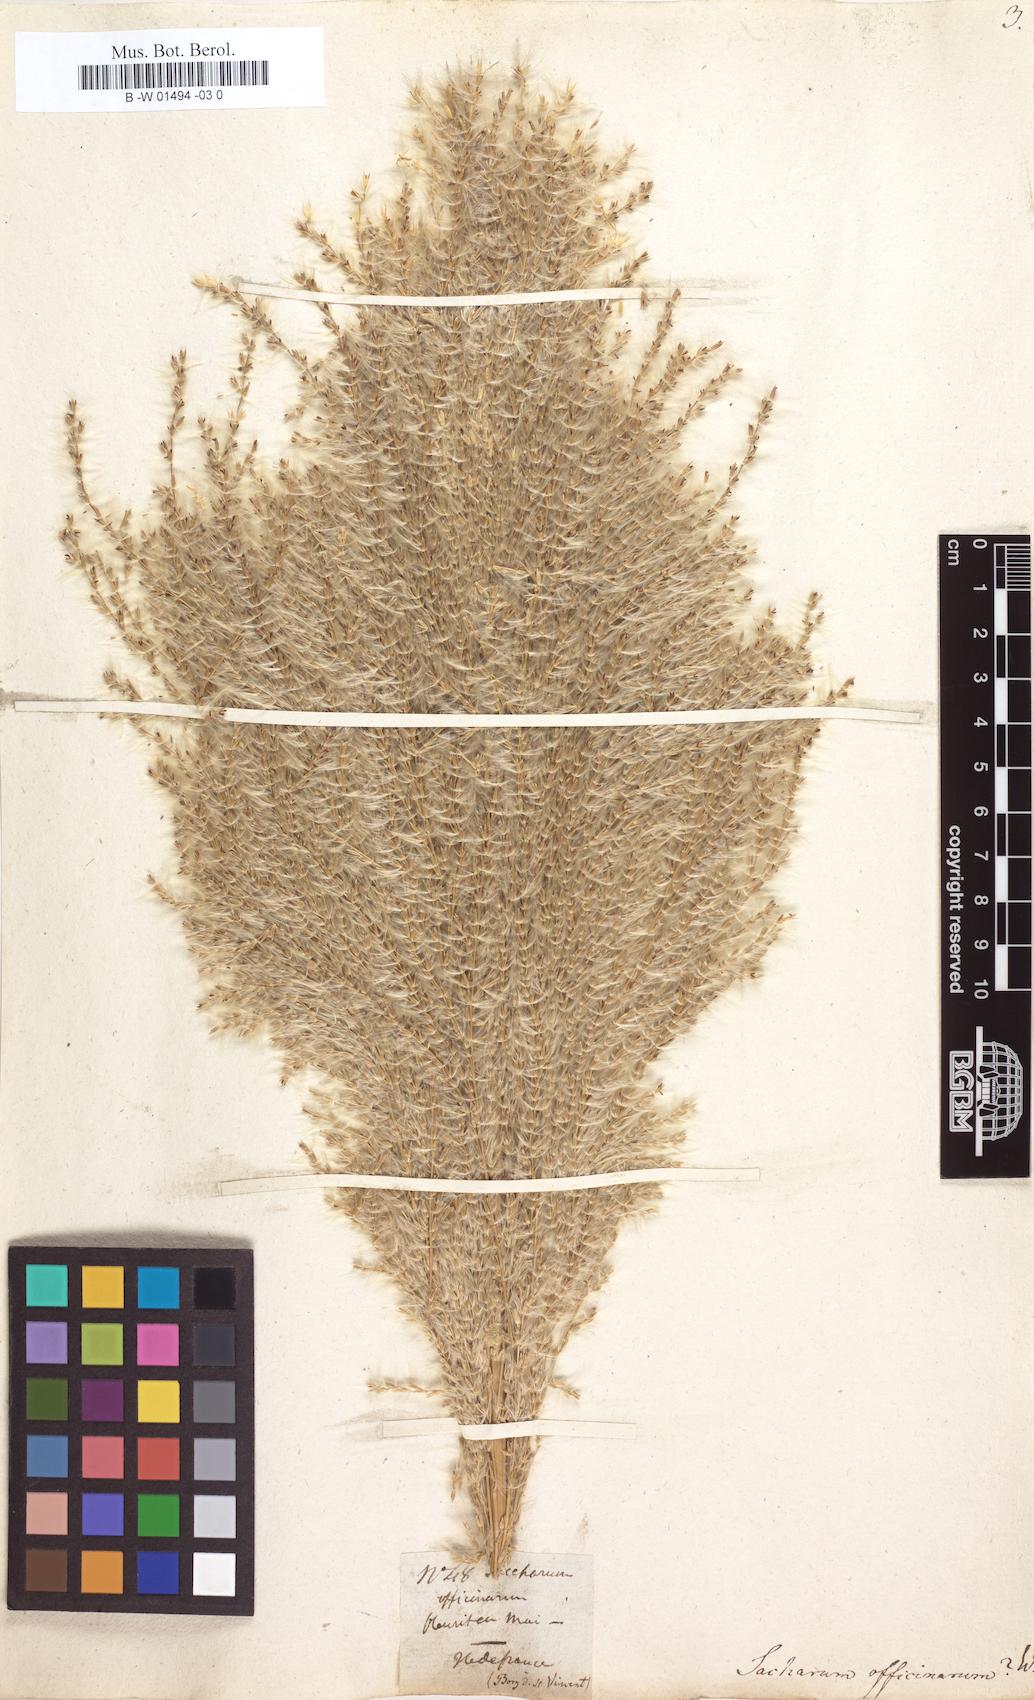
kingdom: Plantae
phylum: Tracheophyta
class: Liliopsida
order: Poales
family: Poaceae
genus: Saccharum
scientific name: Saccharum officinarum
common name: Sugarcane
